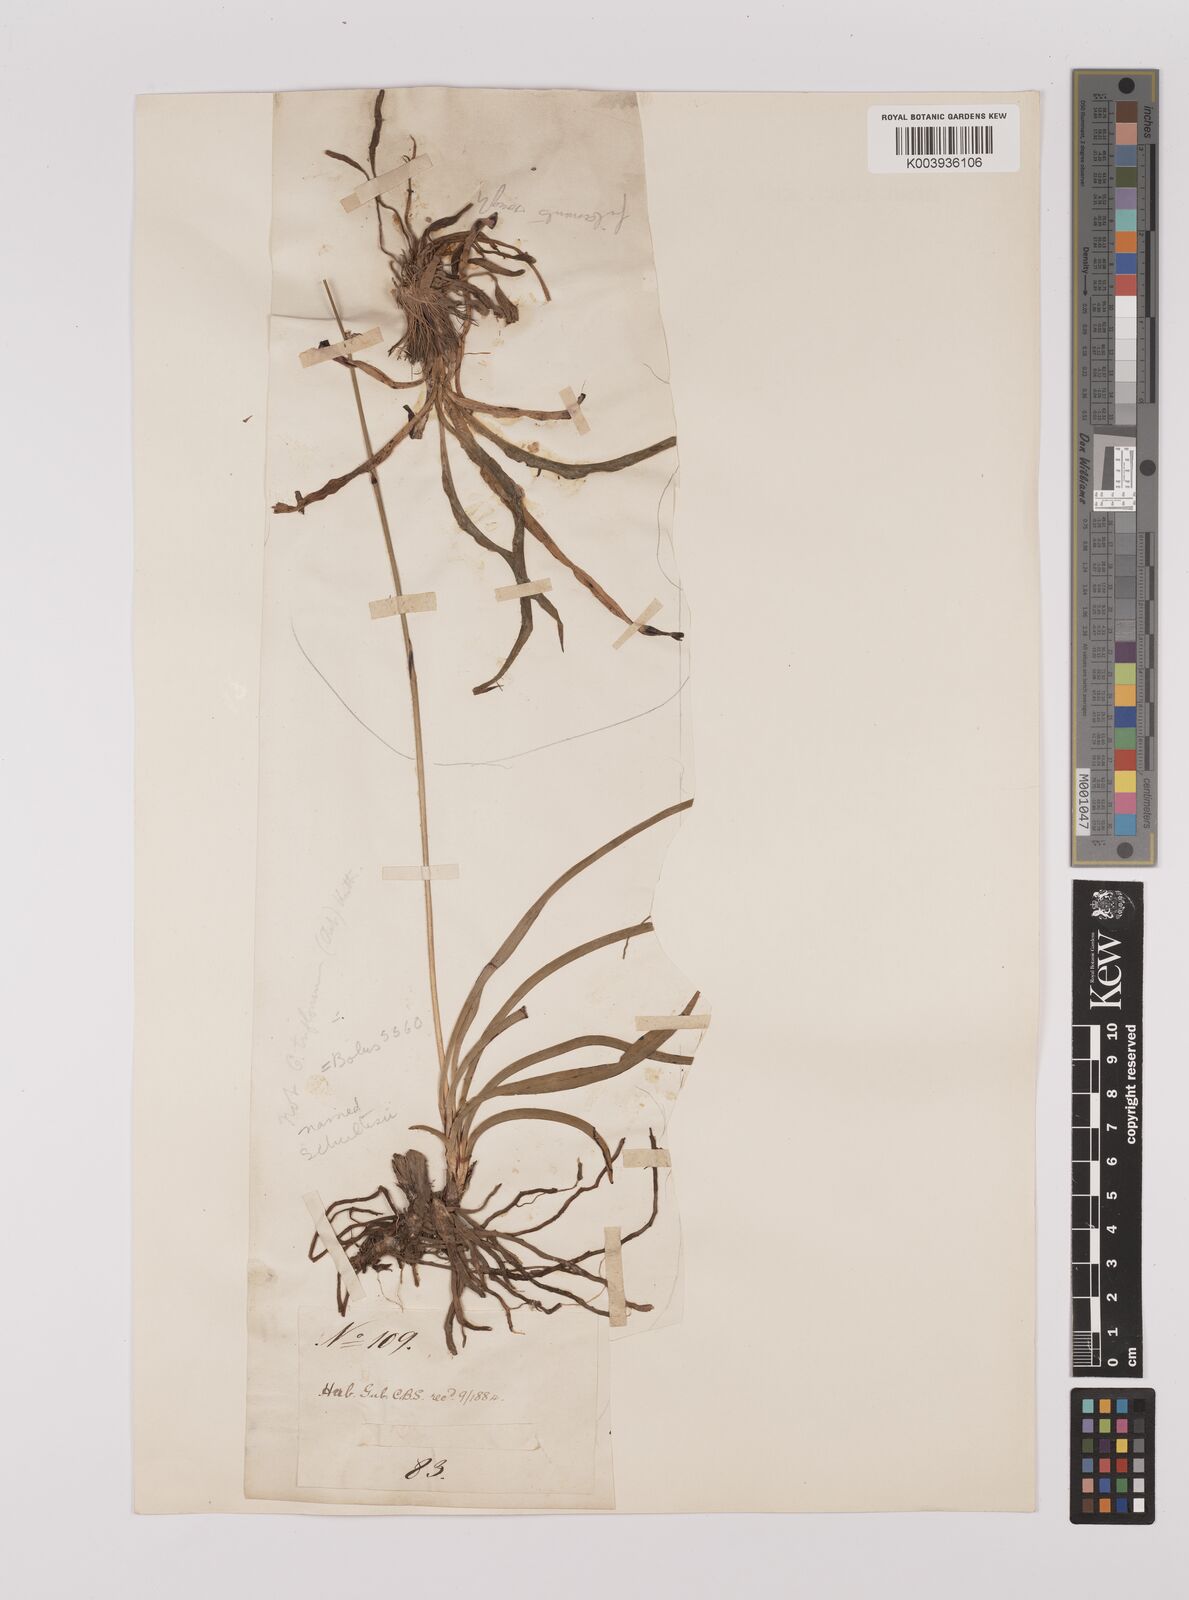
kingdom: Plantae
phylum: Tracheophyta
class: Liliopsida
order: Asparagales
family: Asparagaceae
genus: Chlorophytum
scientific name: Chlorophytum triflorum
